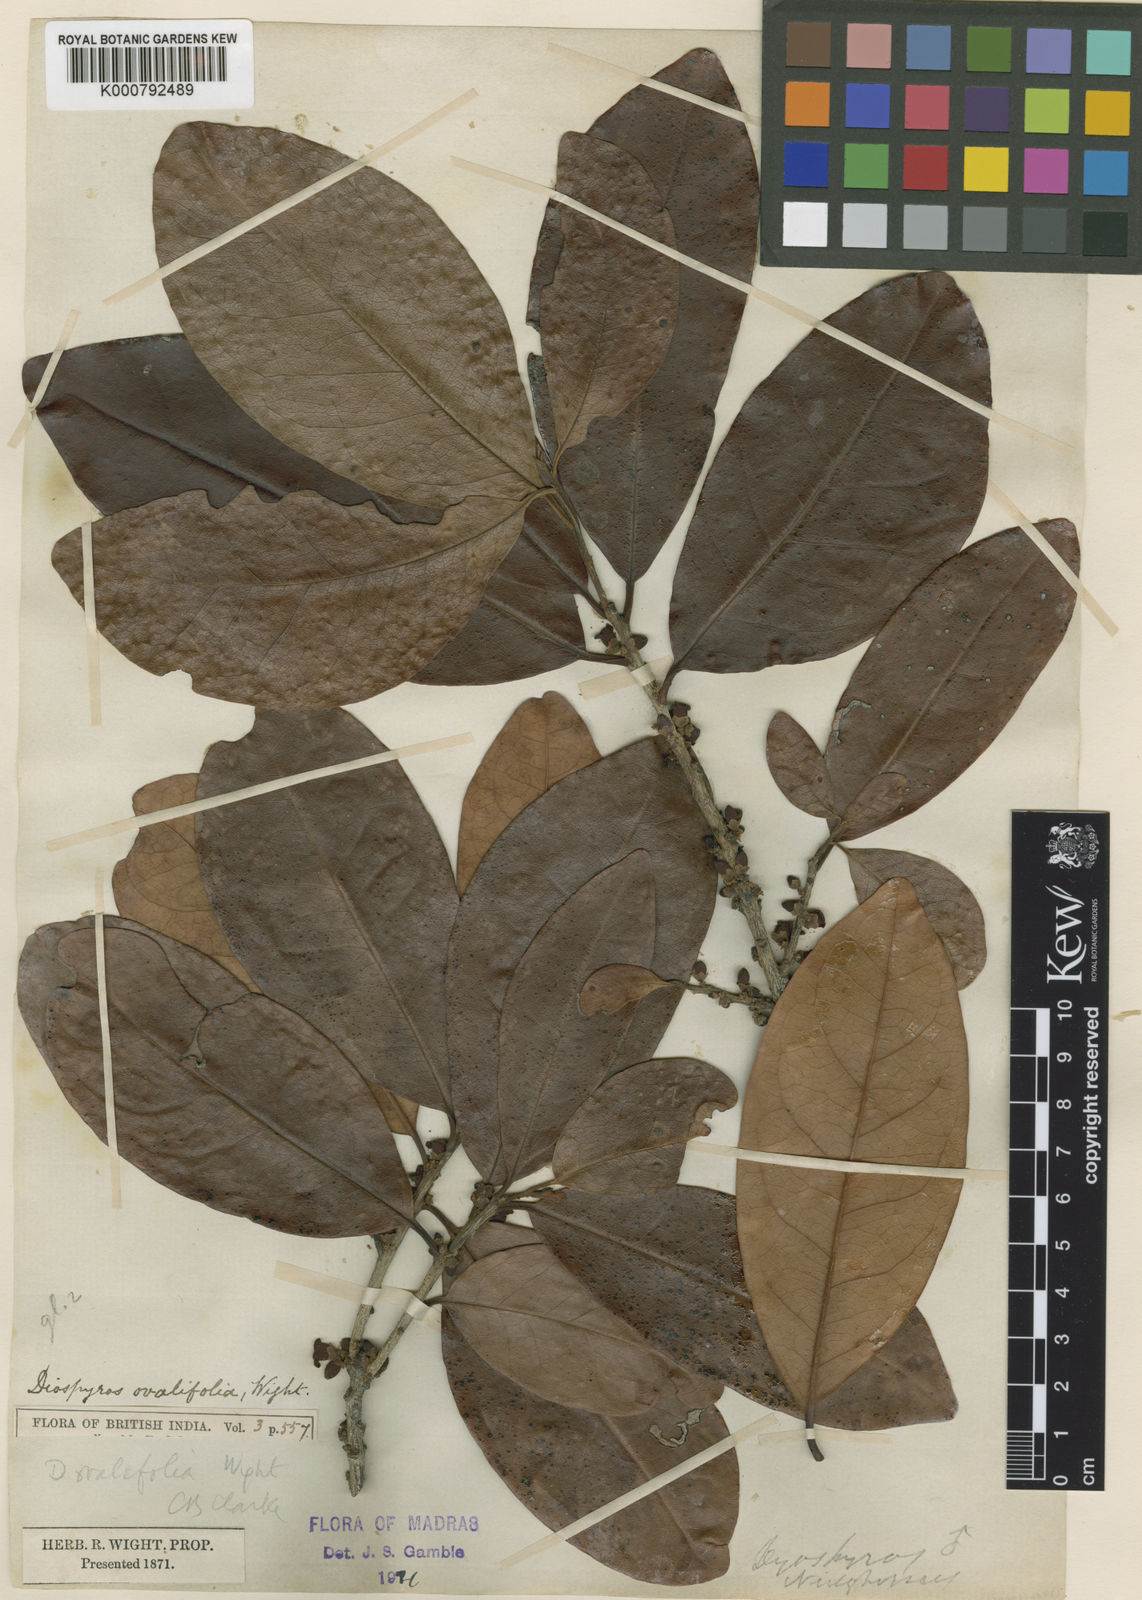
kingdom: Plantae
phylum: Tracheophyta
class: Magnoliopsida
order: Ericales
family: Ebenaceae
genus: Diospyros
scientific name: Diospyros ovalifolia
